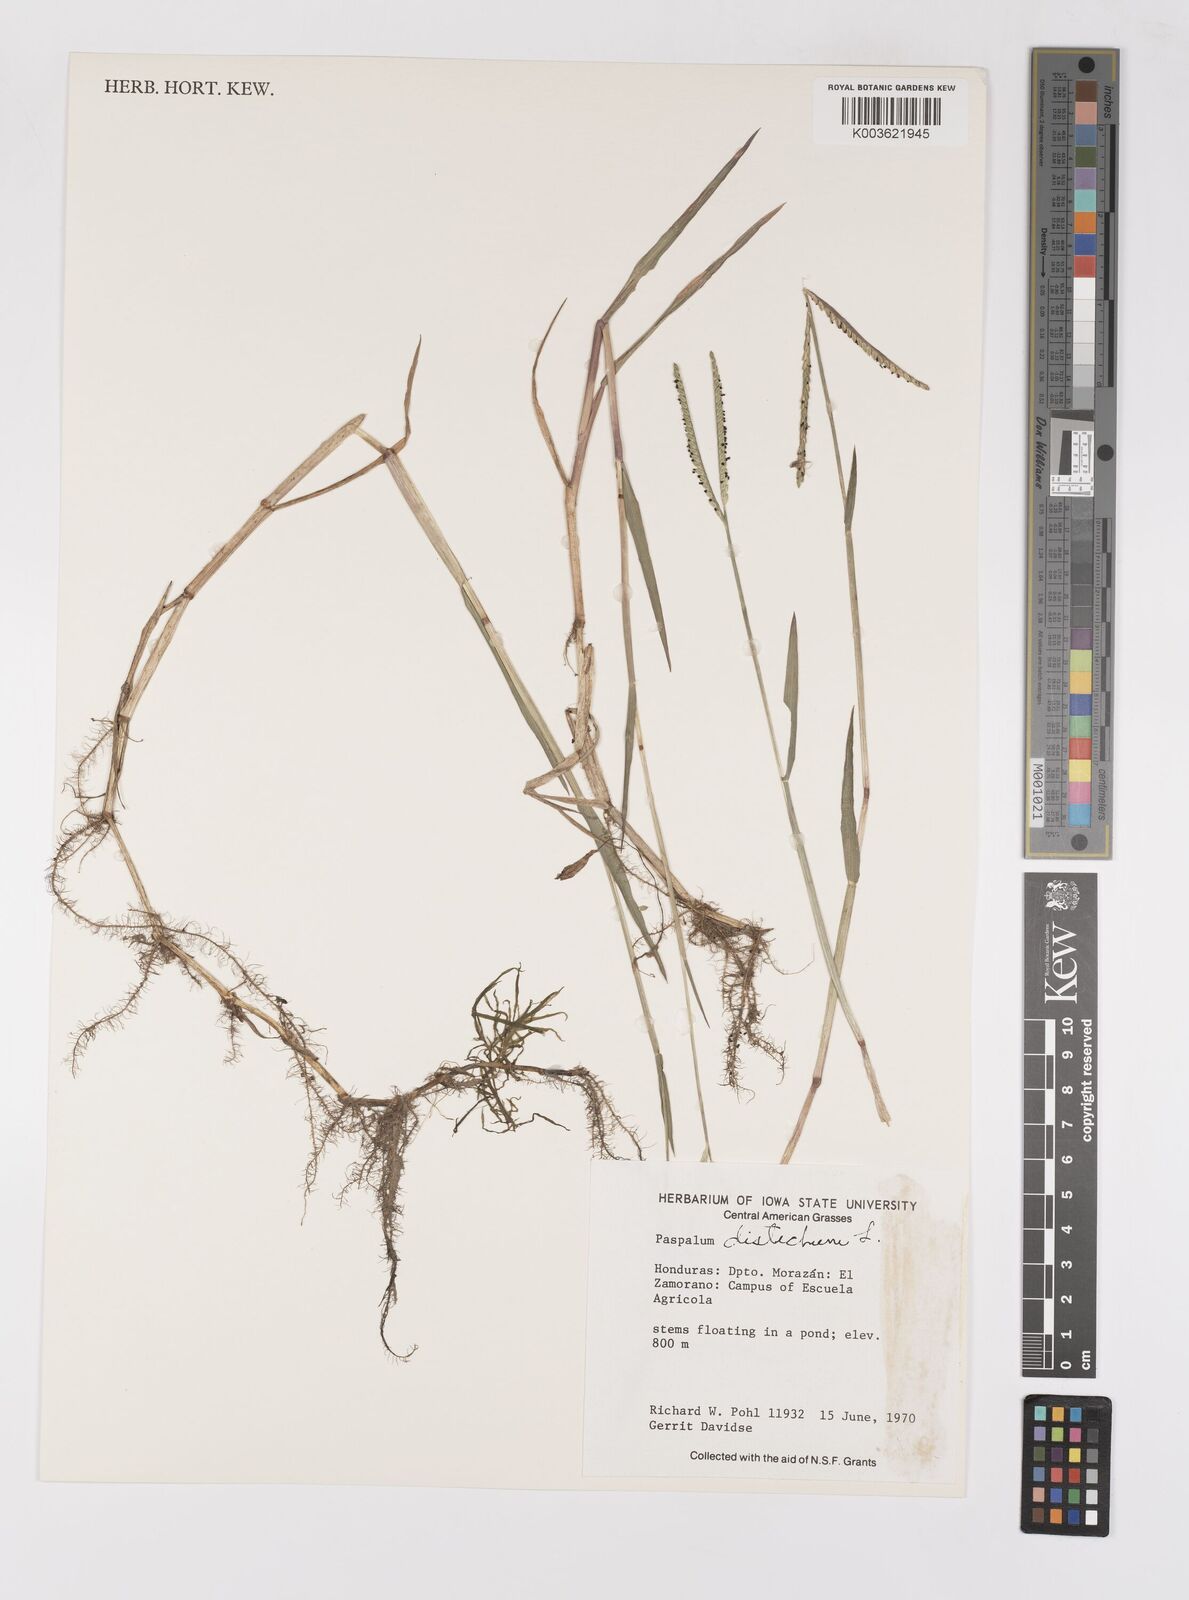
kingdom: Plantae
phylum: Tracheophyta
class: Liliopsida
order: Poales
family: Poaceae
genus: Paspalum
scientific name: Paspalum distichum
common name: Knotgrass
